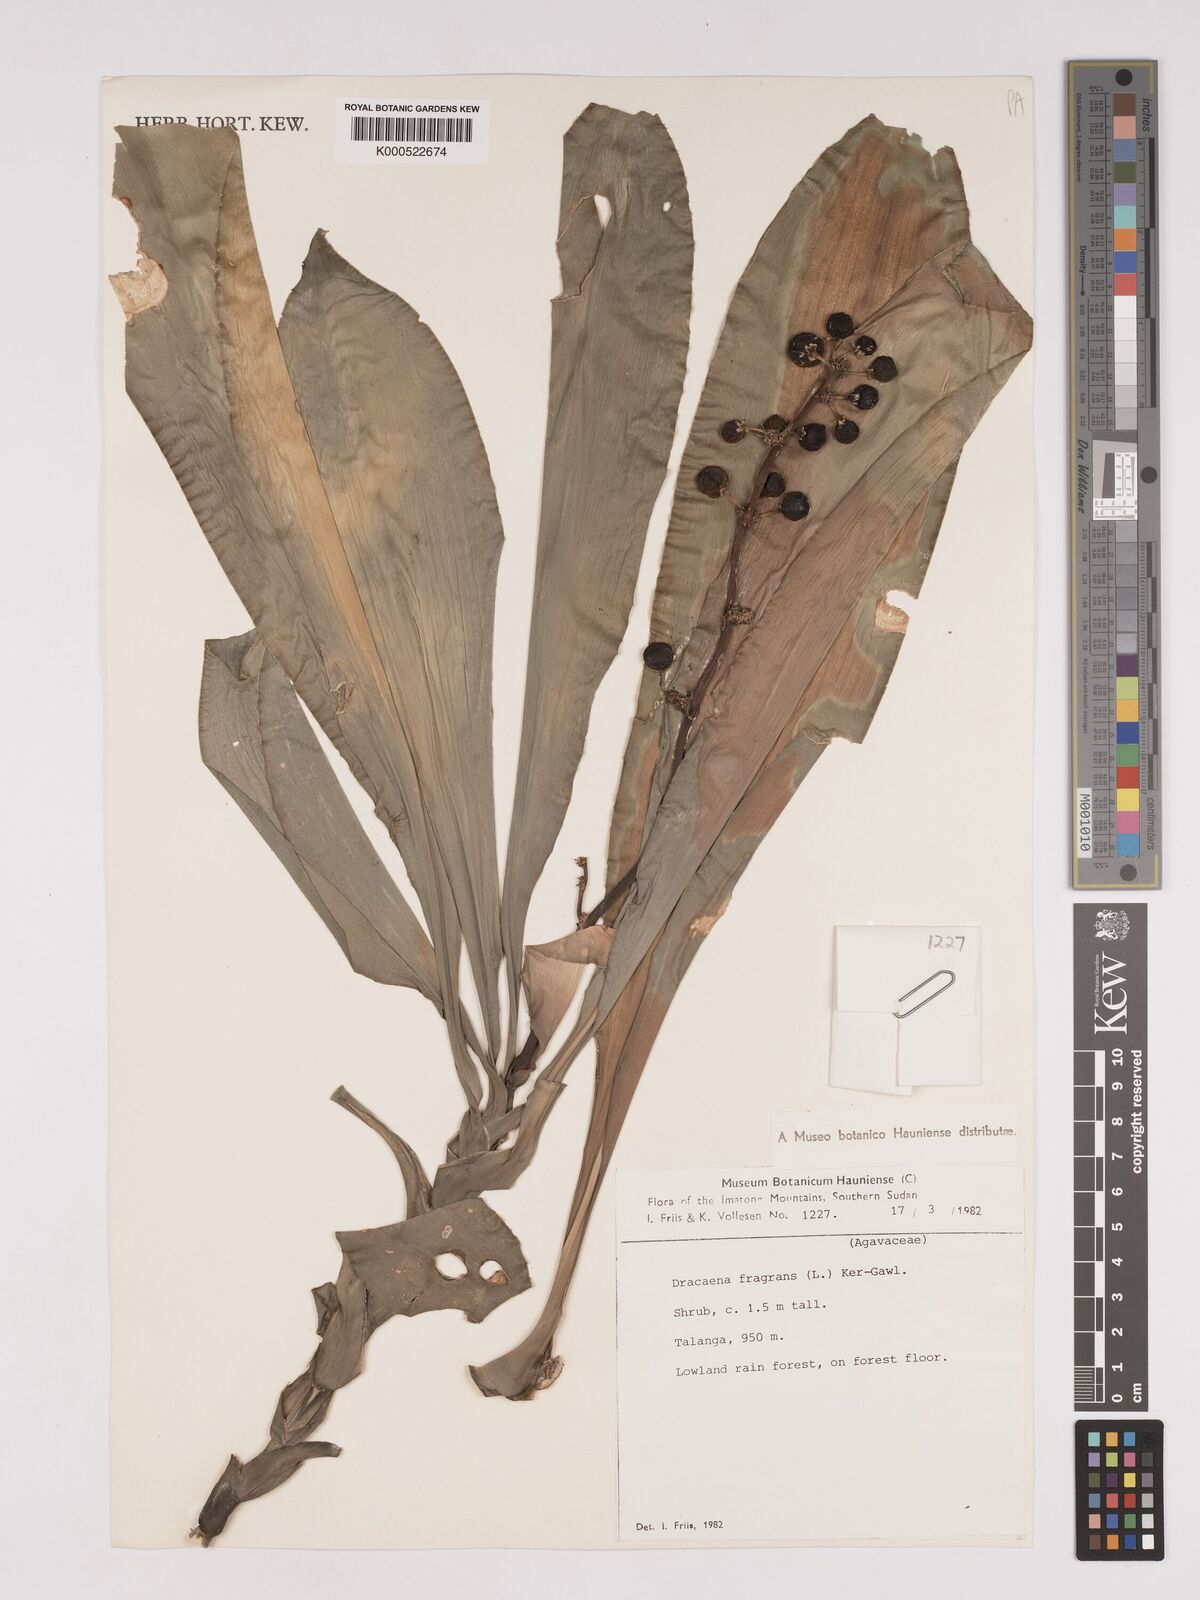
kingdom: Plantae
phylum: Tracheophyta
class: Liliopsida
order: Asparagales
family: Asparagaceae
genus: Dracaena
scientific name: Dracaena fragrans
